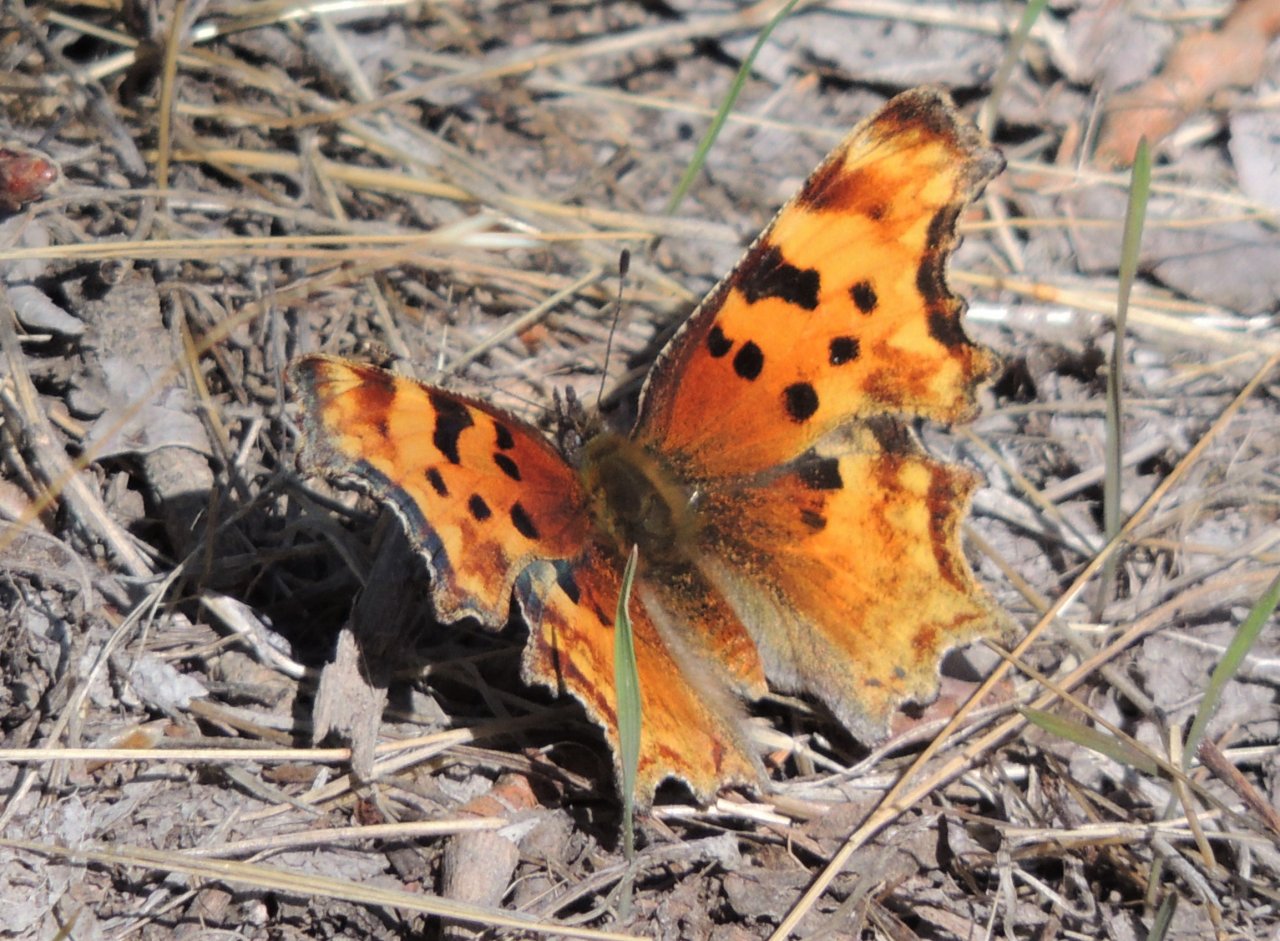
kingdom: Animalia
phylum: Arthropoda
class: Insecta
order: Lepidoptera
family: Nymphalidae
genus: Polygonia
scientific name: Polygonia gracilis
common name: Hoary Comma
